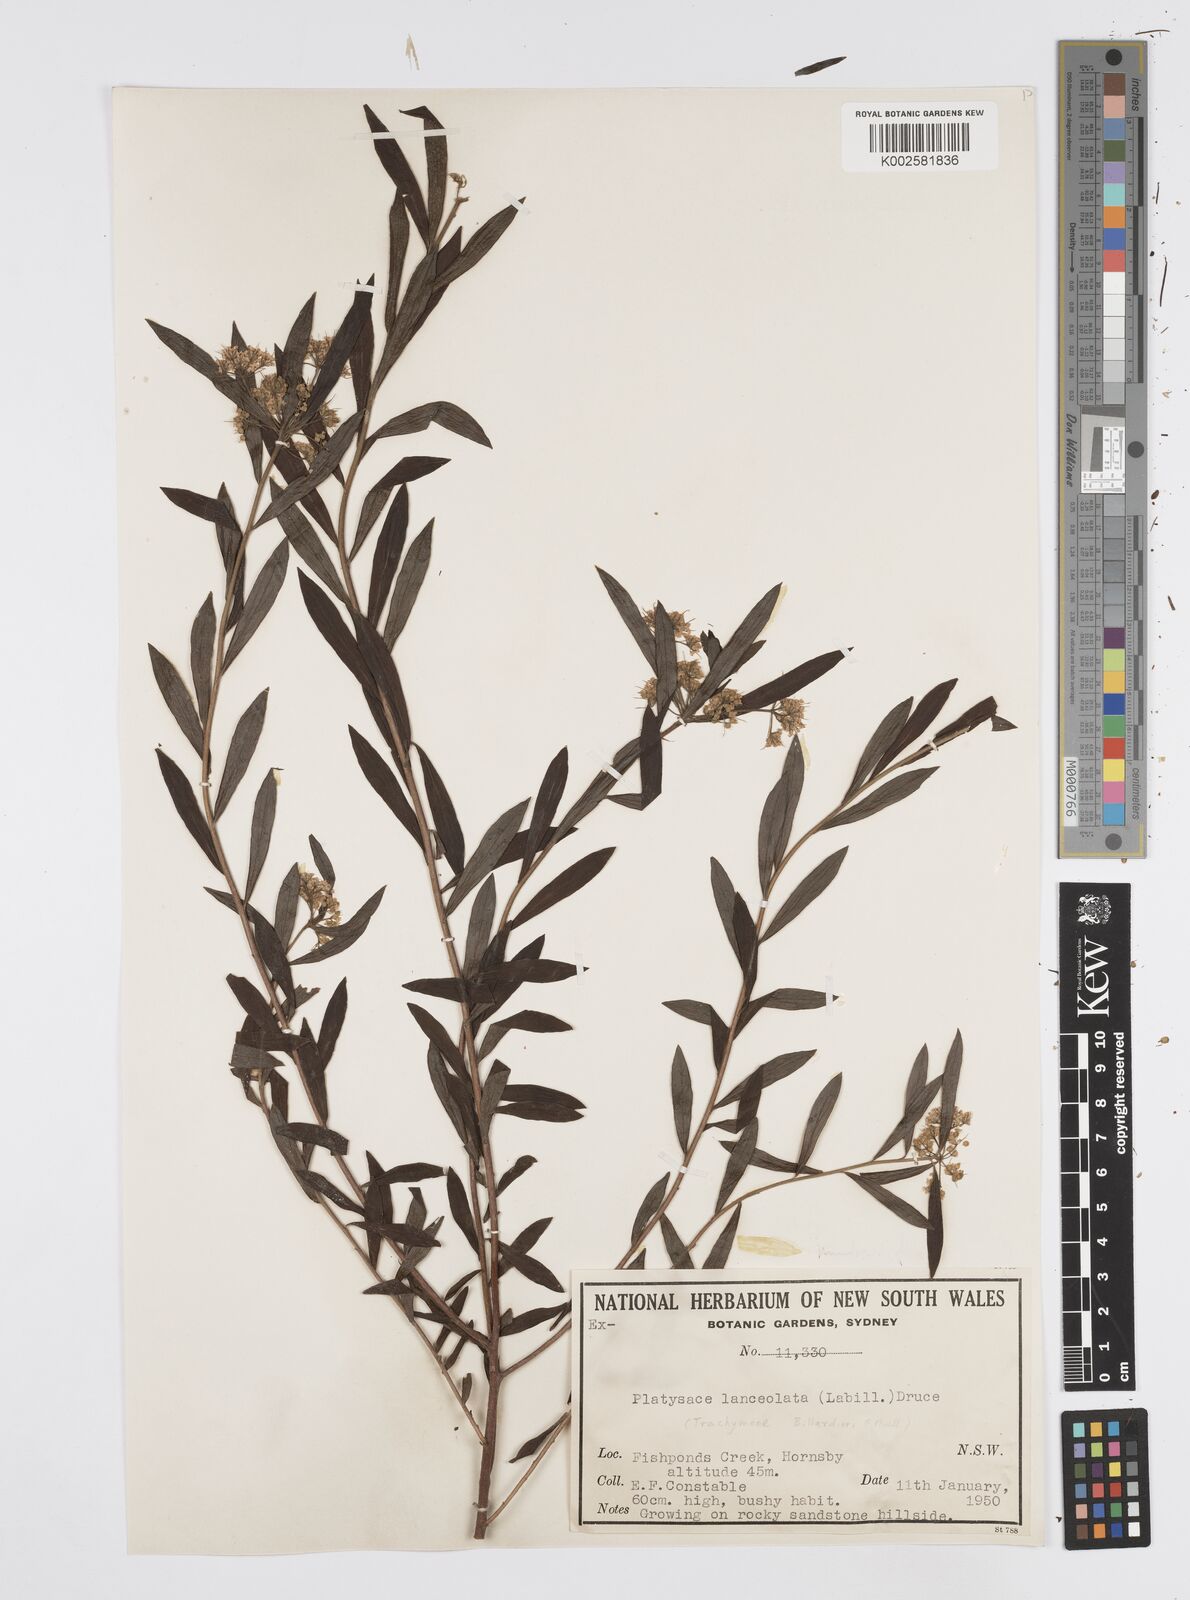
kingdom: Plantae
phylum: Tracheophyta
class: Magnoliopsida
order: Apiales
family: Apiaceae
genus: Platysace
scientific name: Platysace lanceolata
